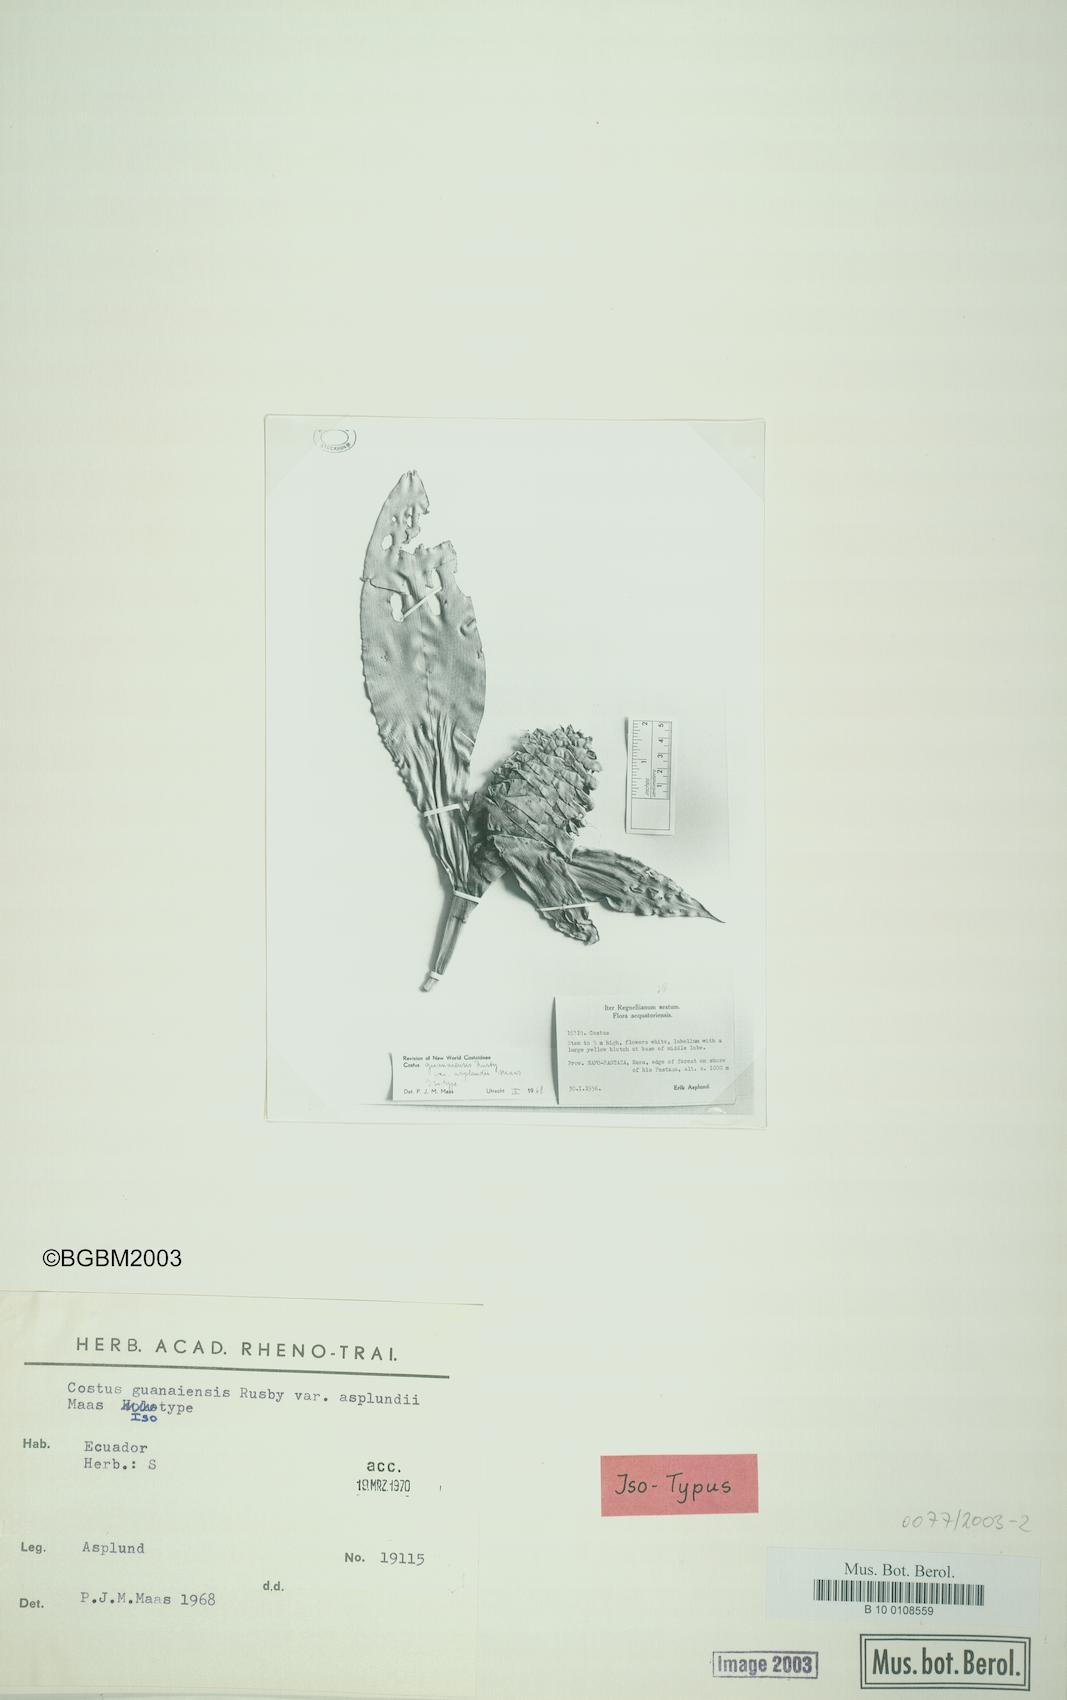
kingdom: Plantae
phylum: Tracheophyta
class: Liliopsida
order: Zingiberales
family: Costaceae
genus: Costus
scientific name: Costus asplundii
